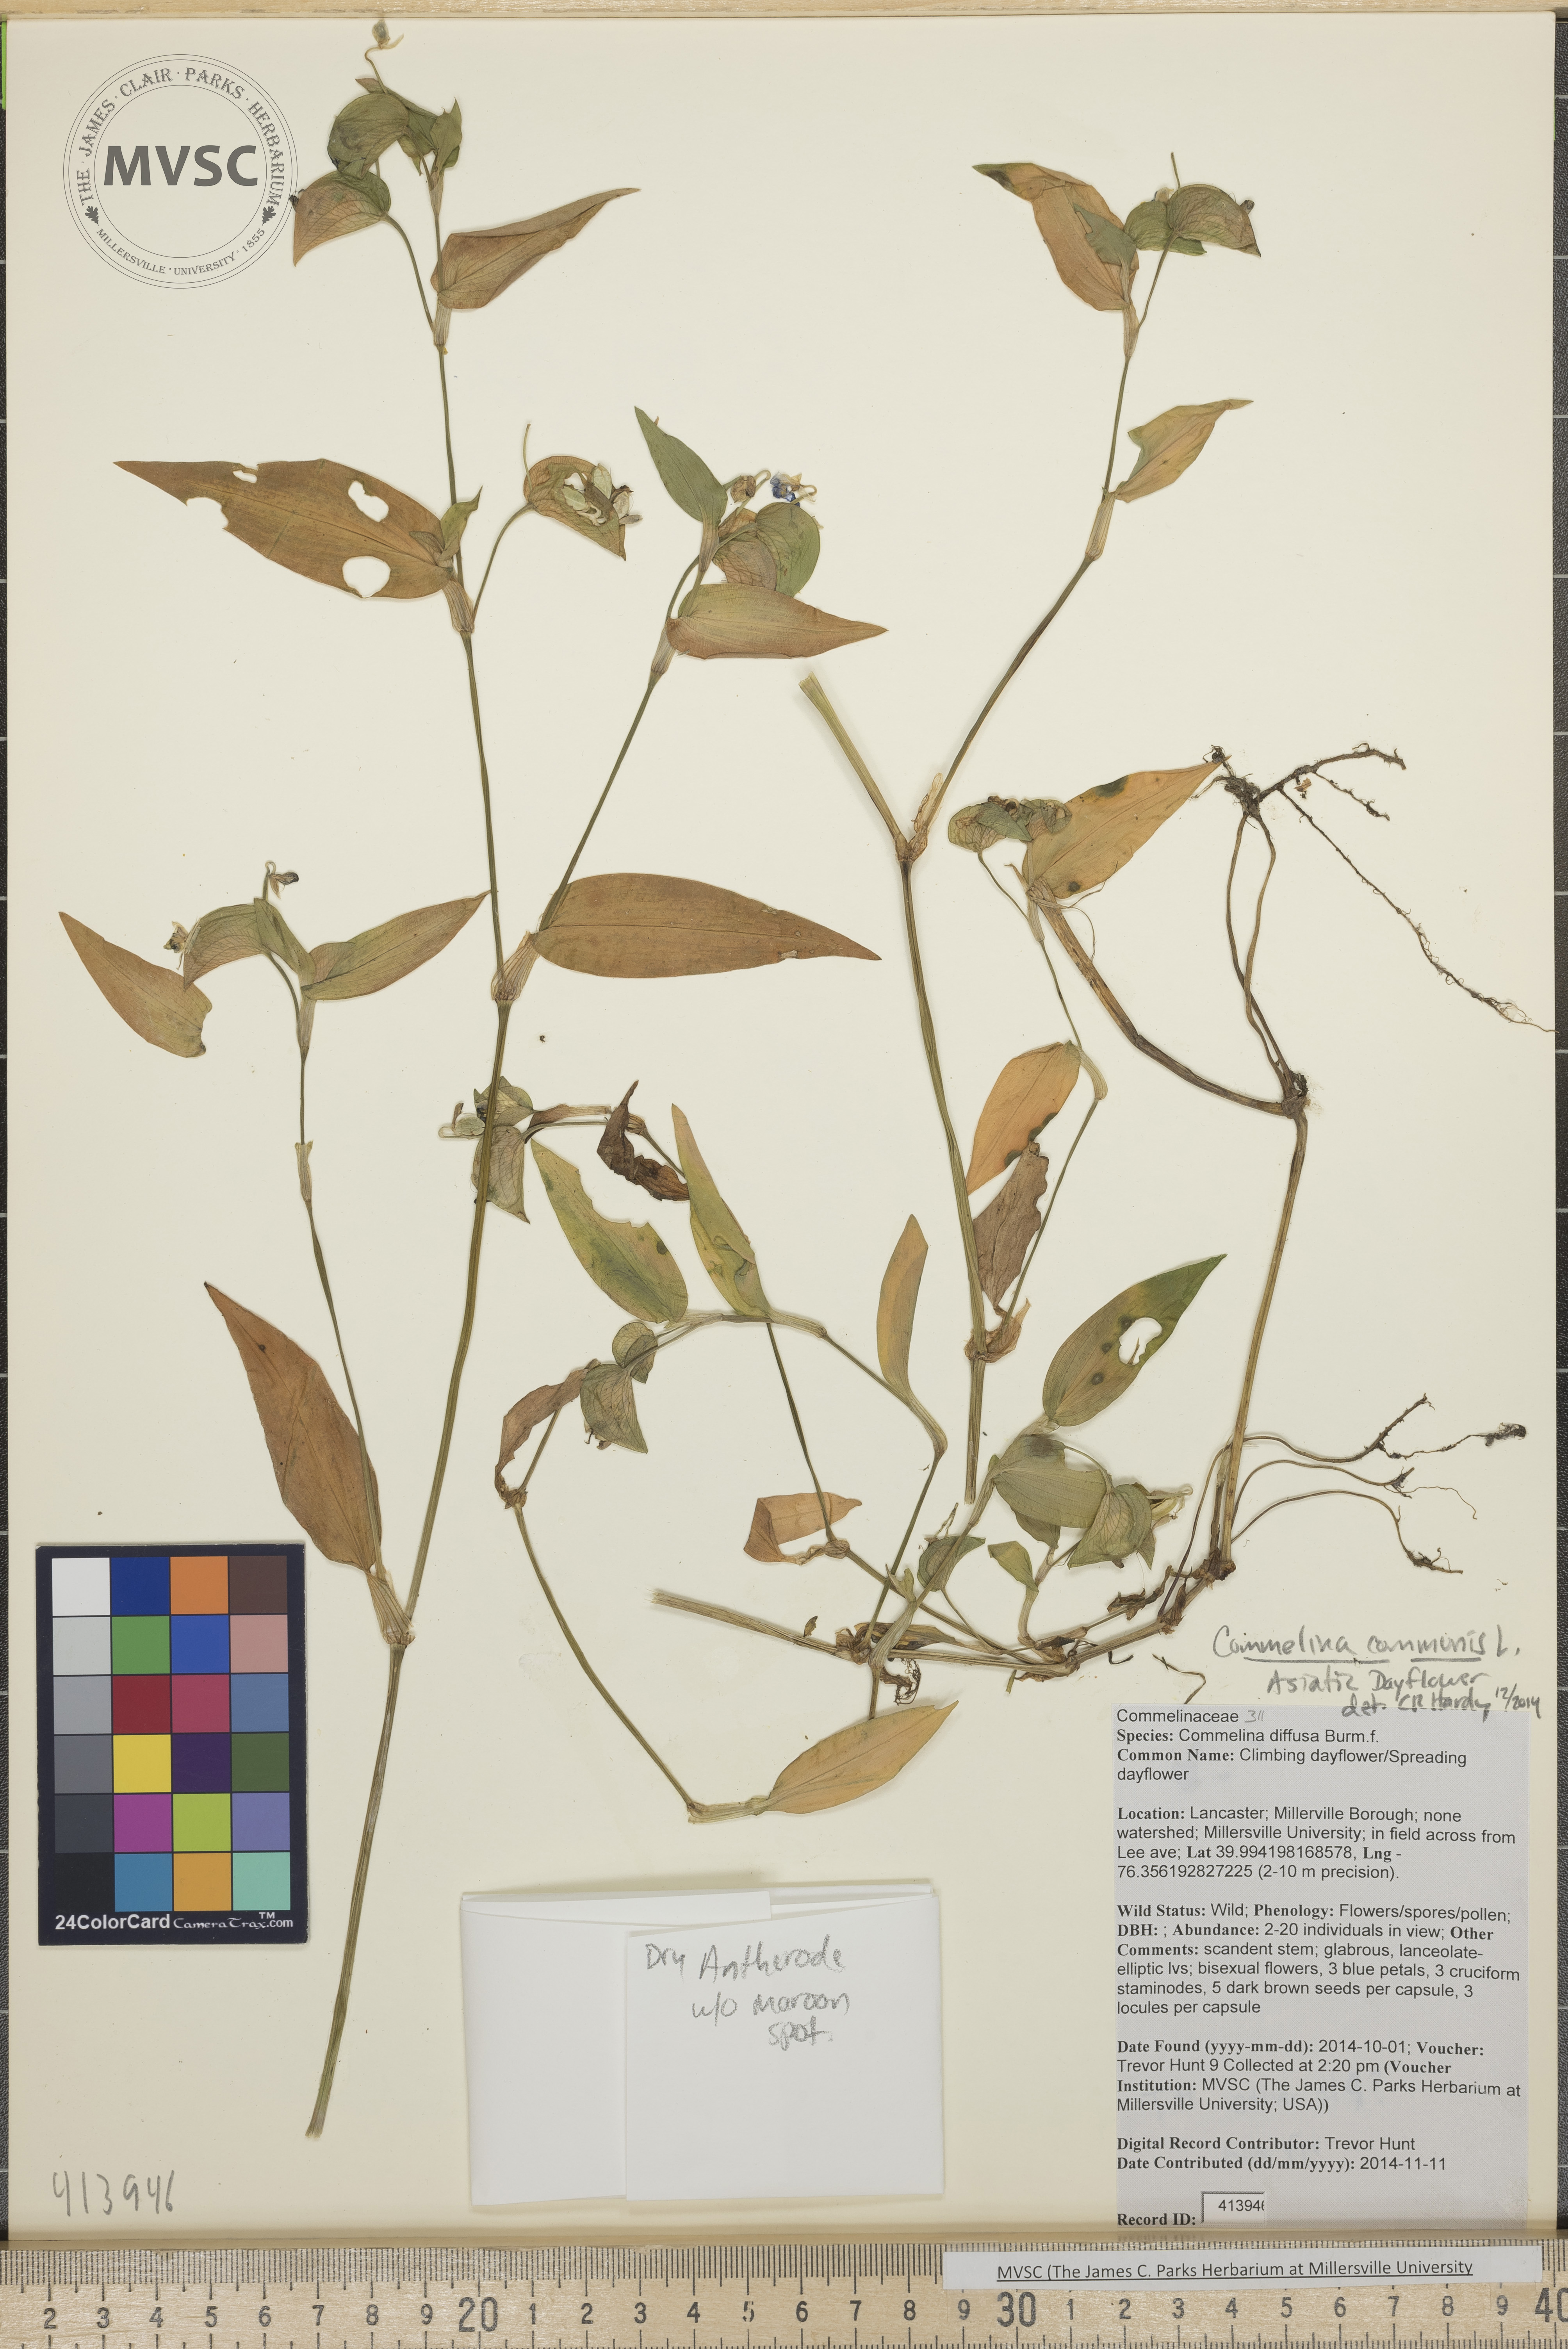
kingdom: Plantae
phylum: Tracheophyta
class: Liliopsida
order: Commelinales
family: Commelinaceae
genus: Commelina
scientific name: Commelina communis
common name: Asiatic dayflower
